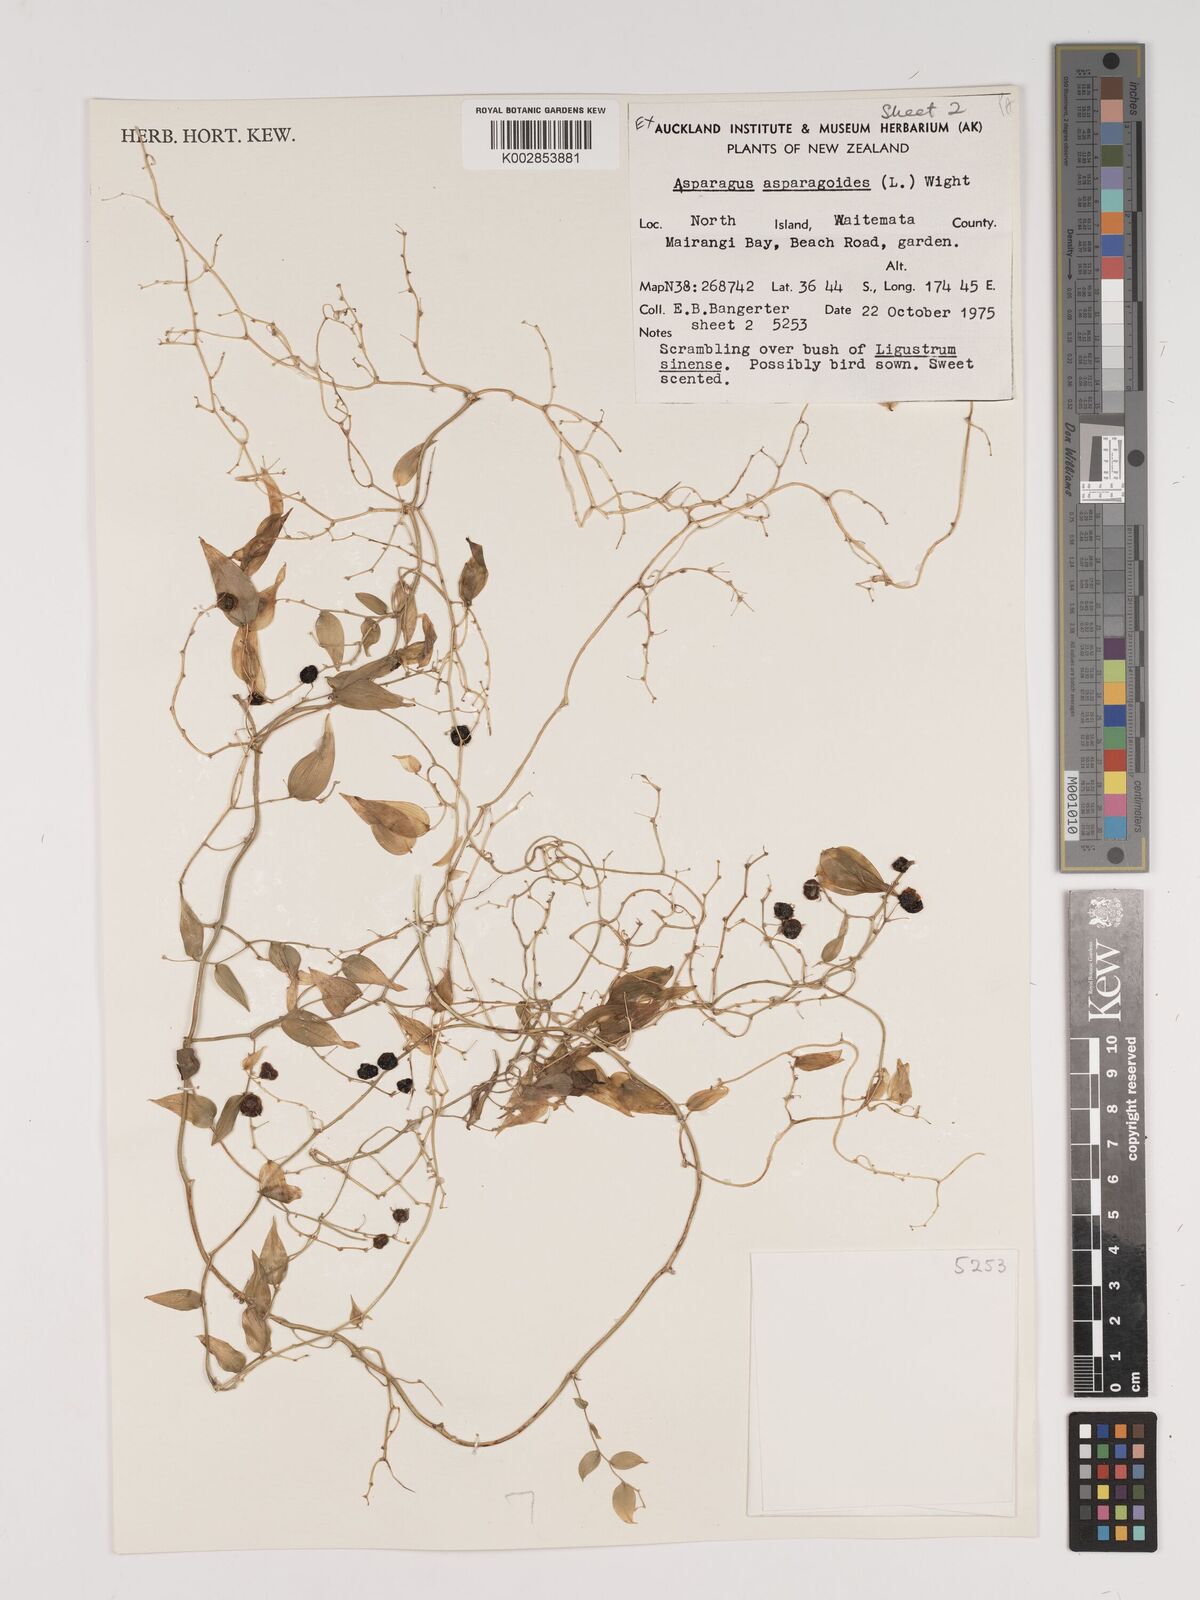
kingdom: Plantae
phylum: Tracheophyta
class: Liliopsida
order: Asparagales
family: Asparagaceae
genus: Asparagus
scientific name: Asparagus asparagoides
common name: African asparagus fern
